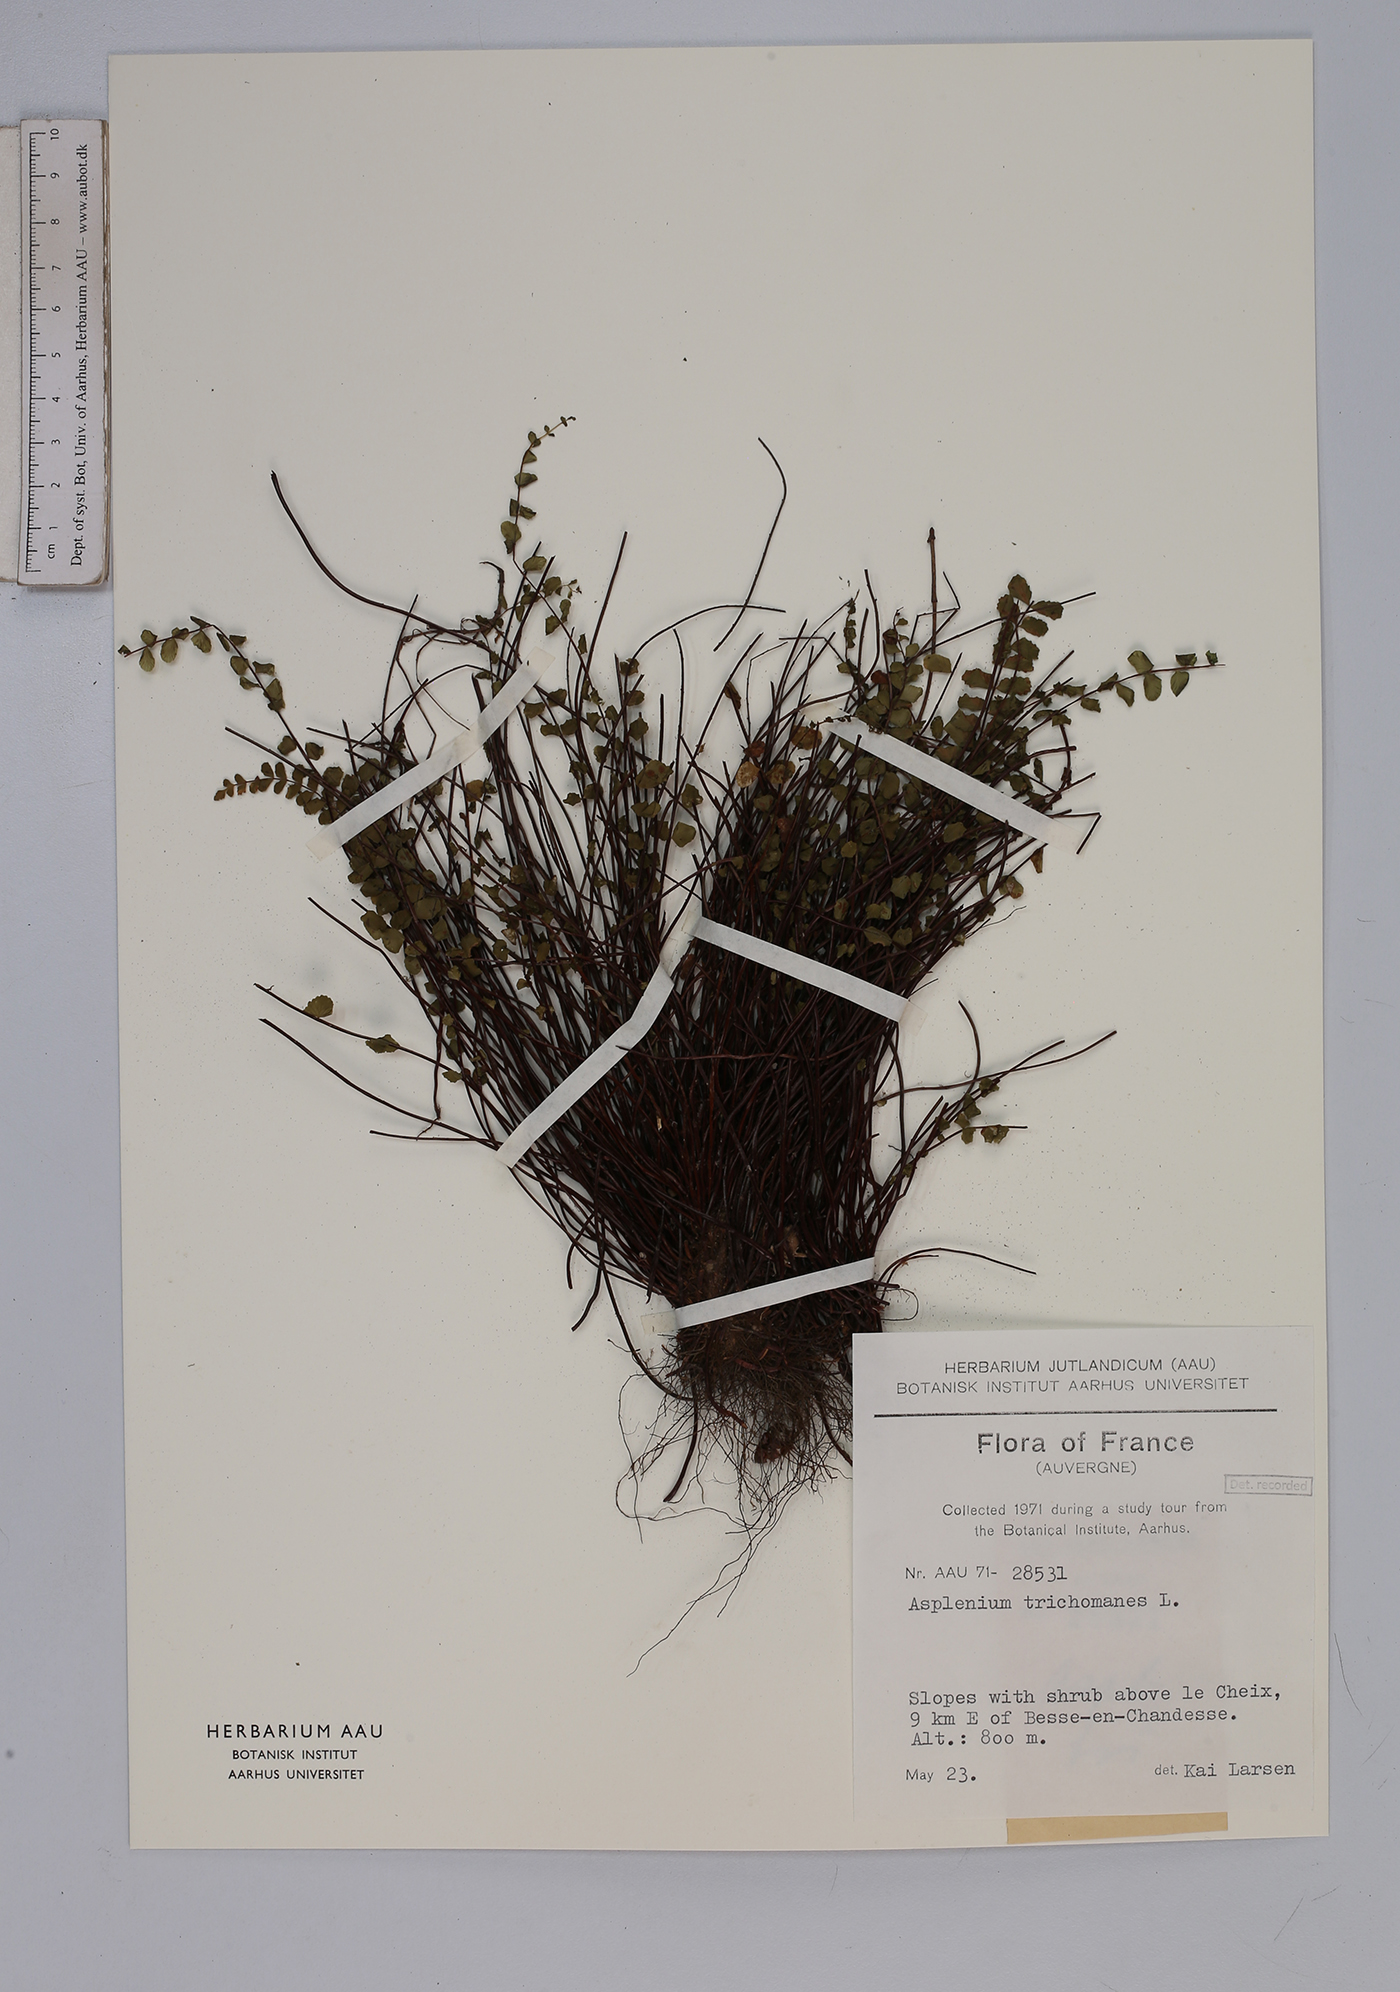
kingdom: Plantae
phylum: Tracheophyta
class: Polypodiopsida
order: Polypodiales
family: Aspleniaceae
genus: Asplenium
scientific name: Asplenium trichomanes
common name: Maidenhair spleenwort
